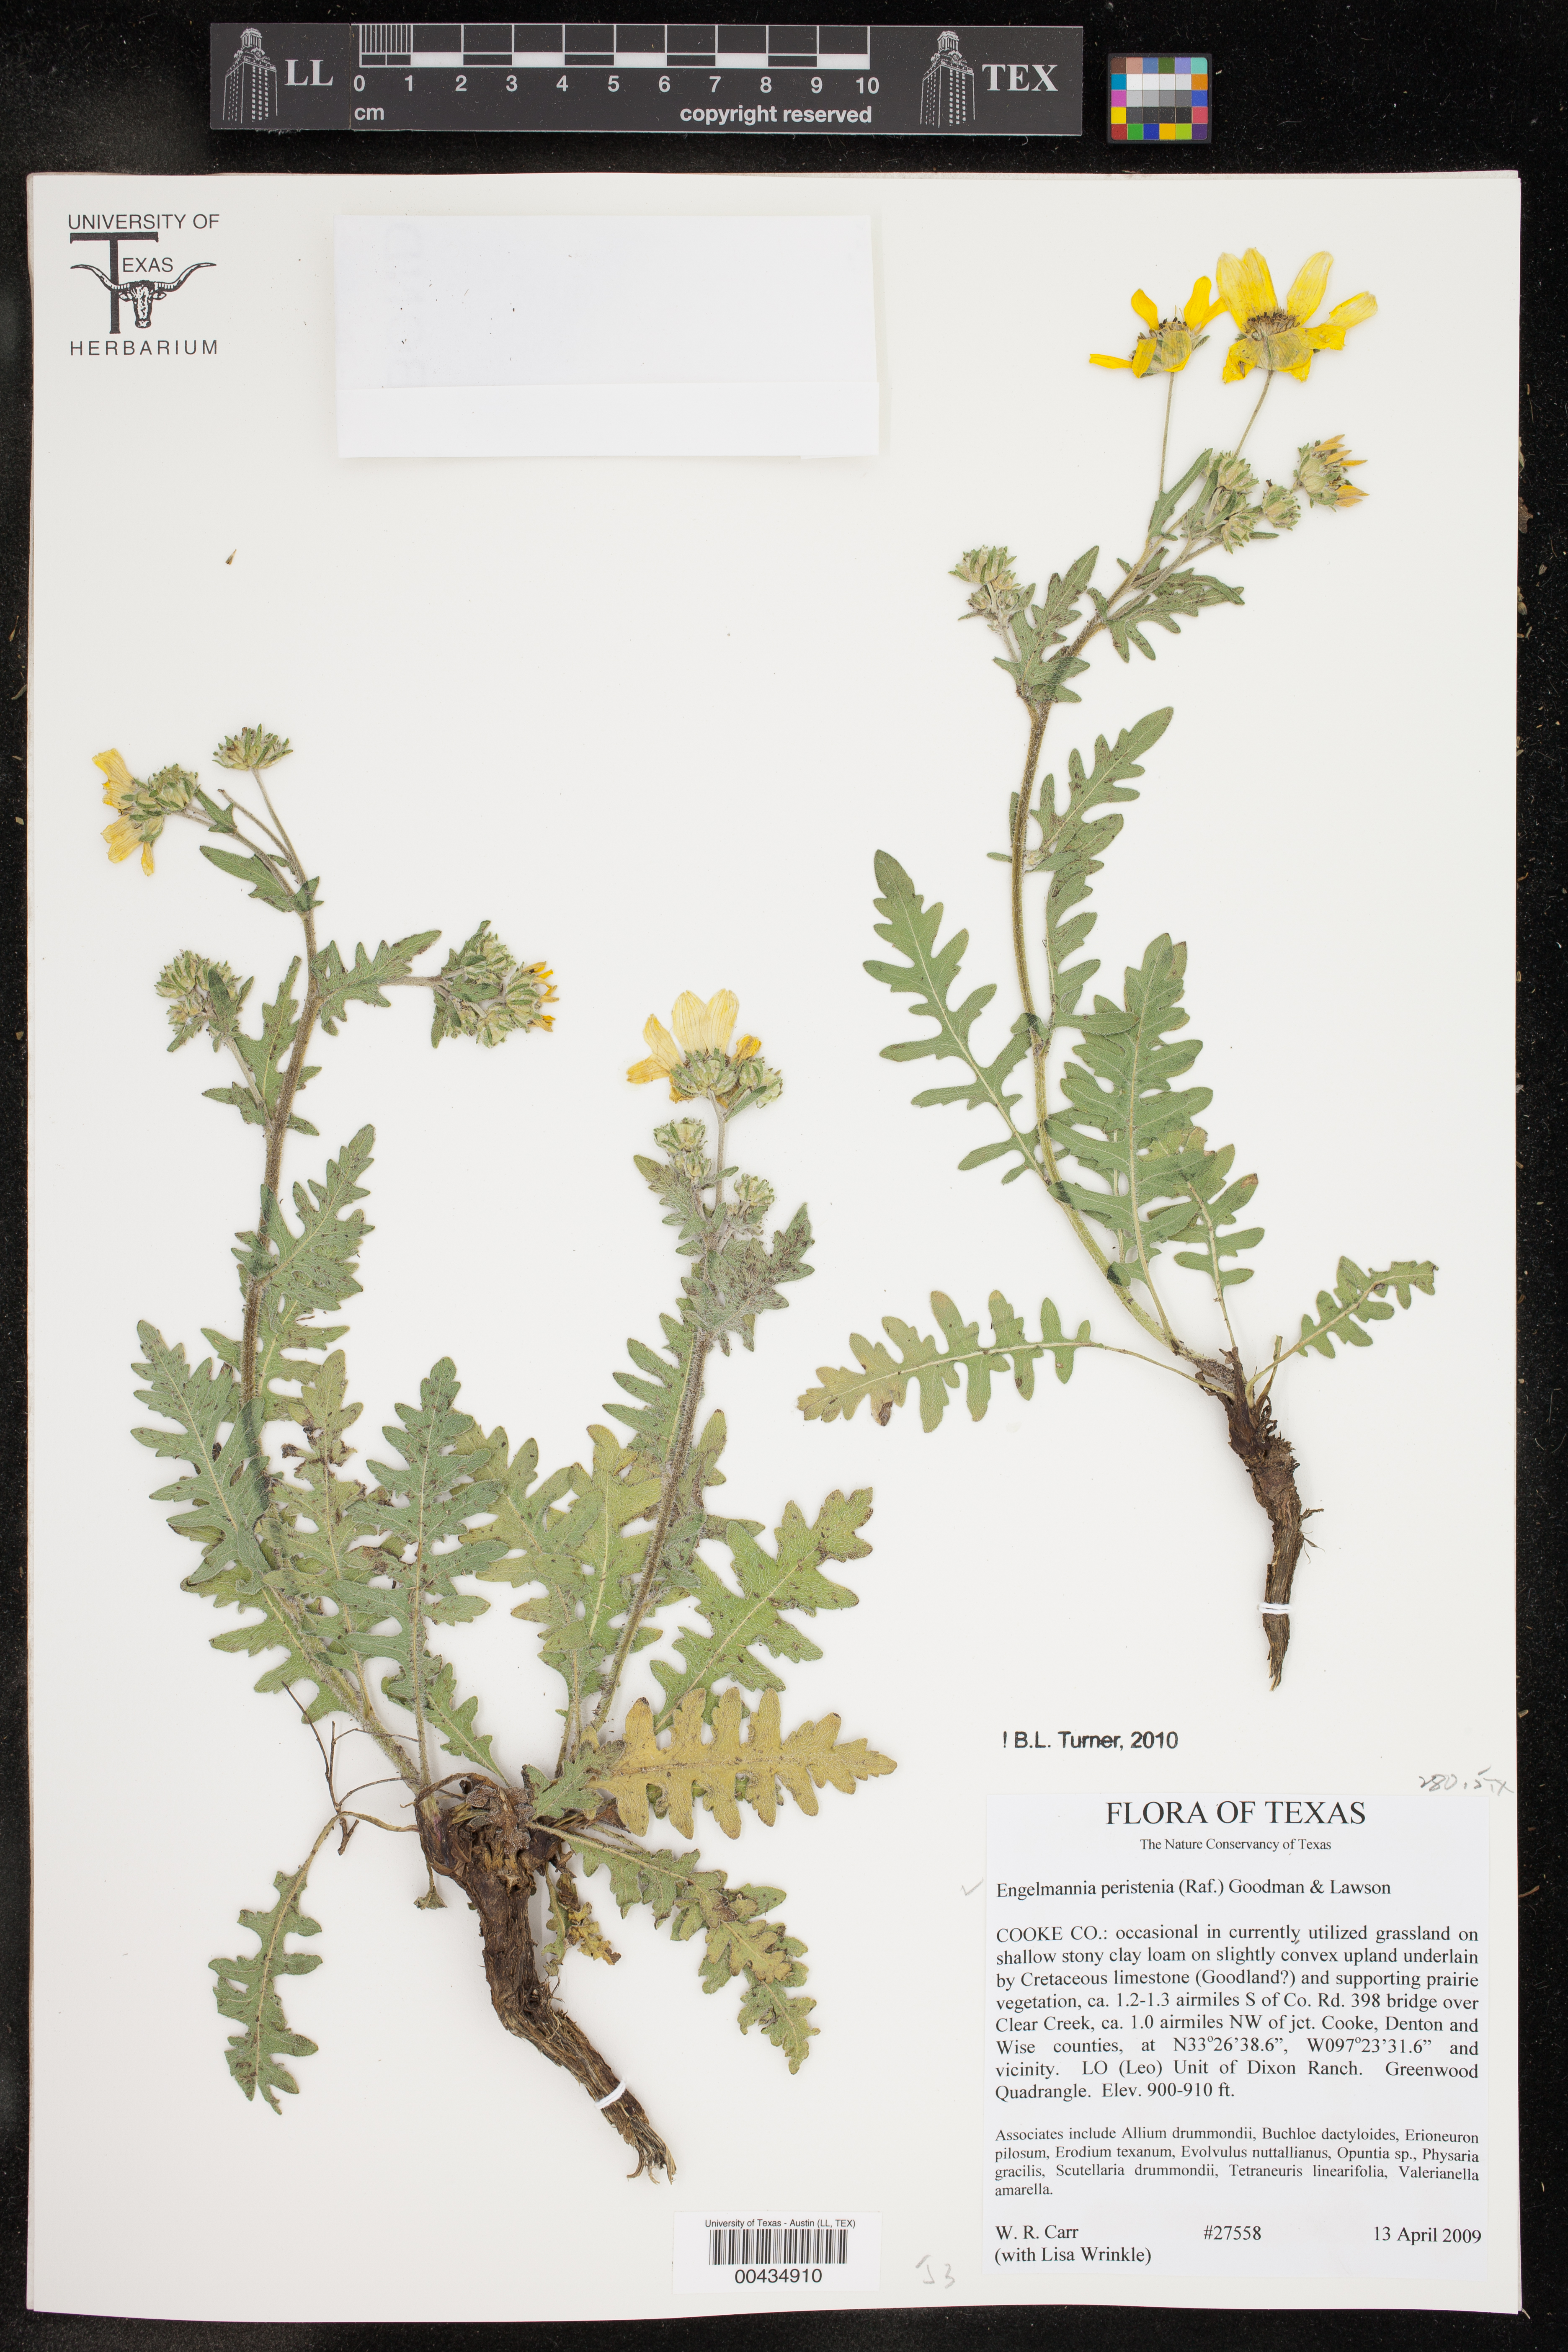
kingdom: Plantae
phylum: Tracheophyta
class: Magnoliopsida
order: Asterales
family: Asteraceae
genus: Engelmannia
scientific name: Engelmannia peristenia
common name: Engelmann's daisy
